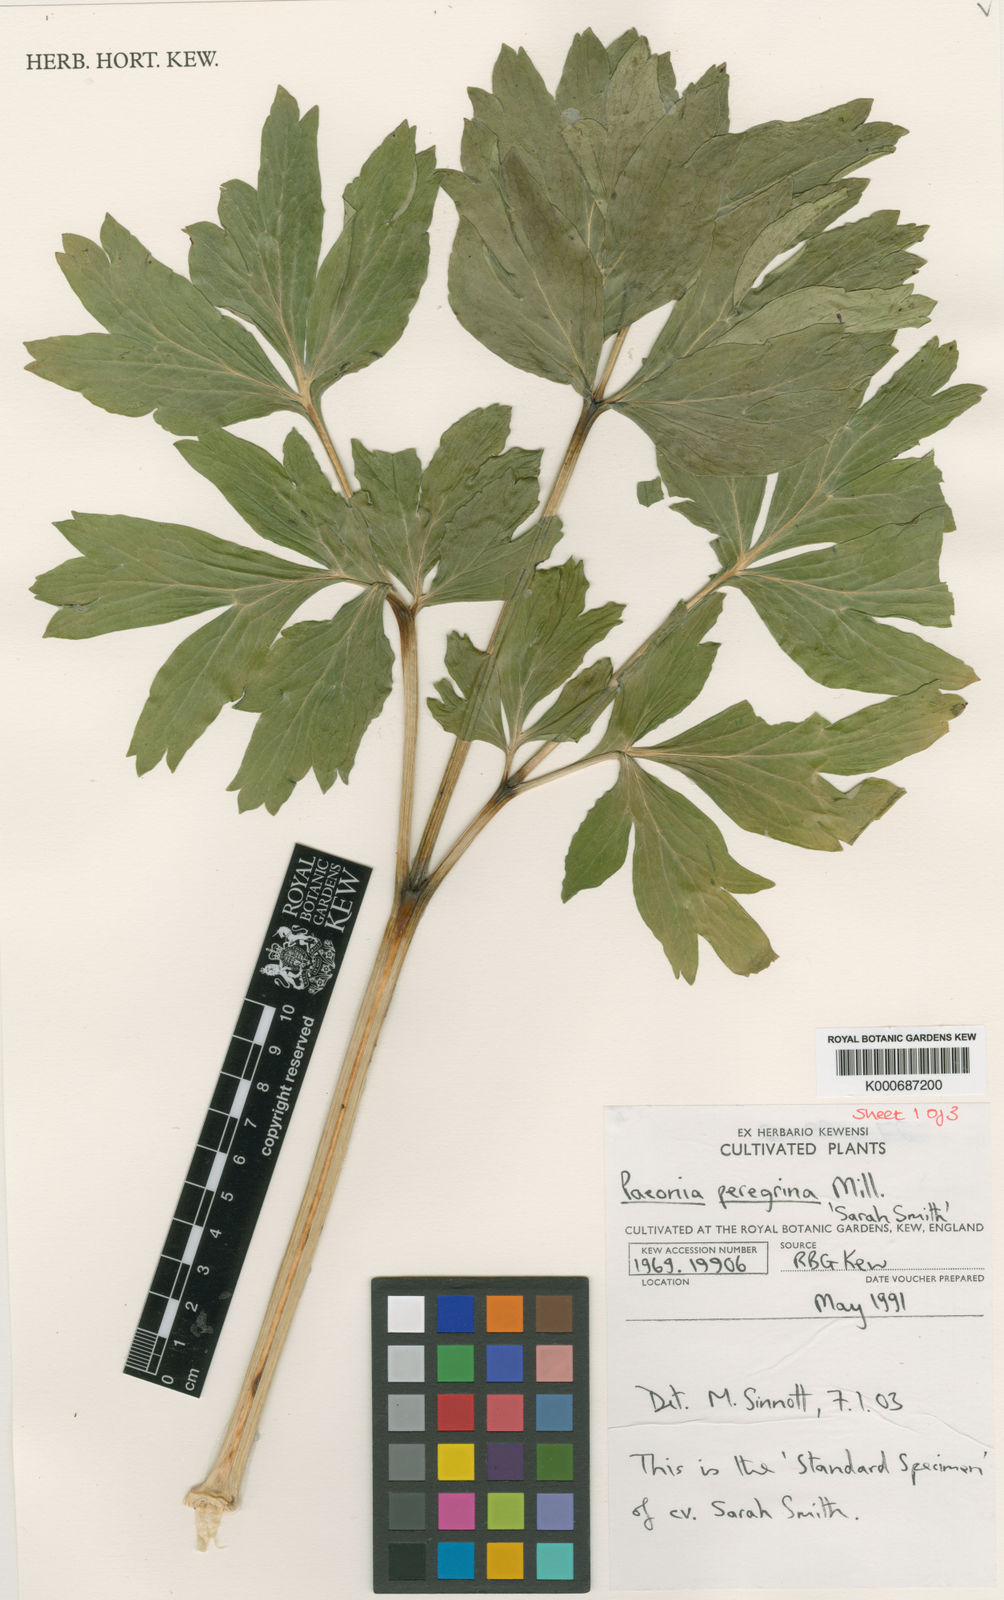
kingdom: Plantae
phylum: Tracheophyta
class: Magnoliopsida
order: Saxifragales
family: Paeoniaceae
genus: Paeonia
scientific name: Paeonia peregrina
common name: Scarlet peony
